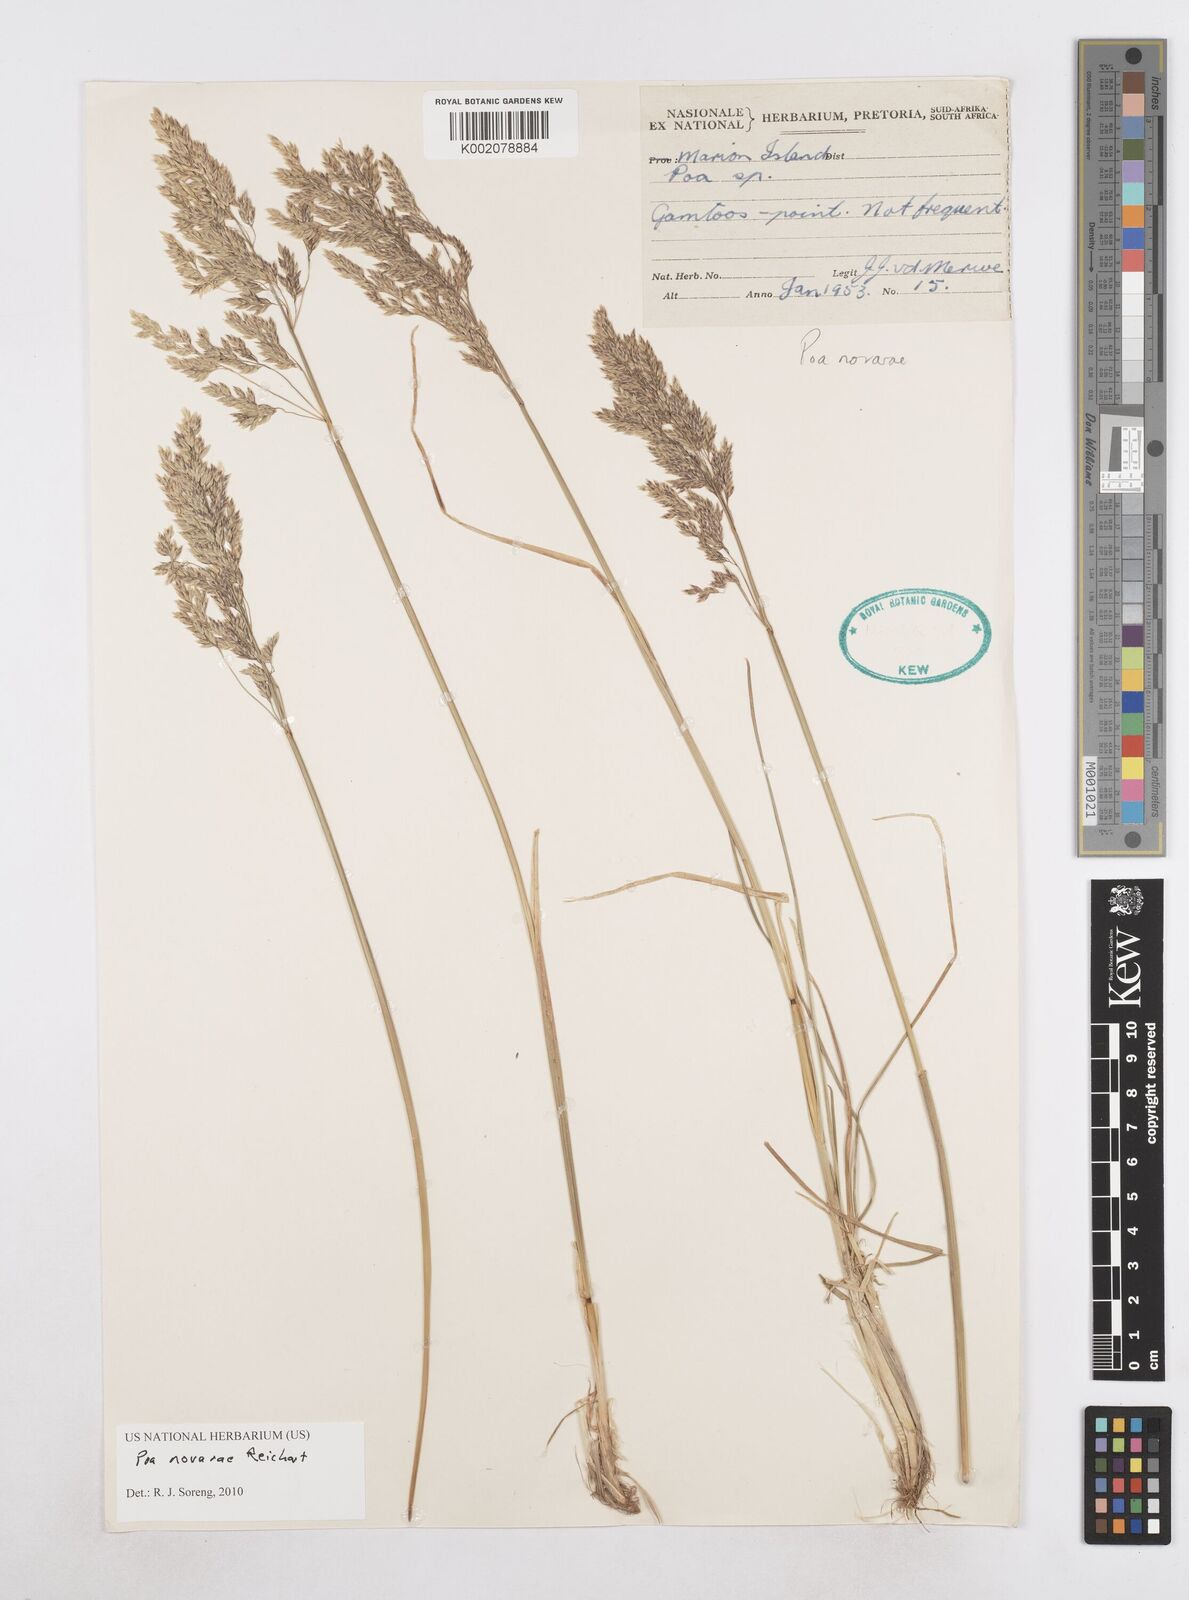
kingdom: Plantae
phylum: Tracheophyta
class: Liliopsida
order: Poales
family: Poaceae
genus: Poa
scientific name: Poa novarae
